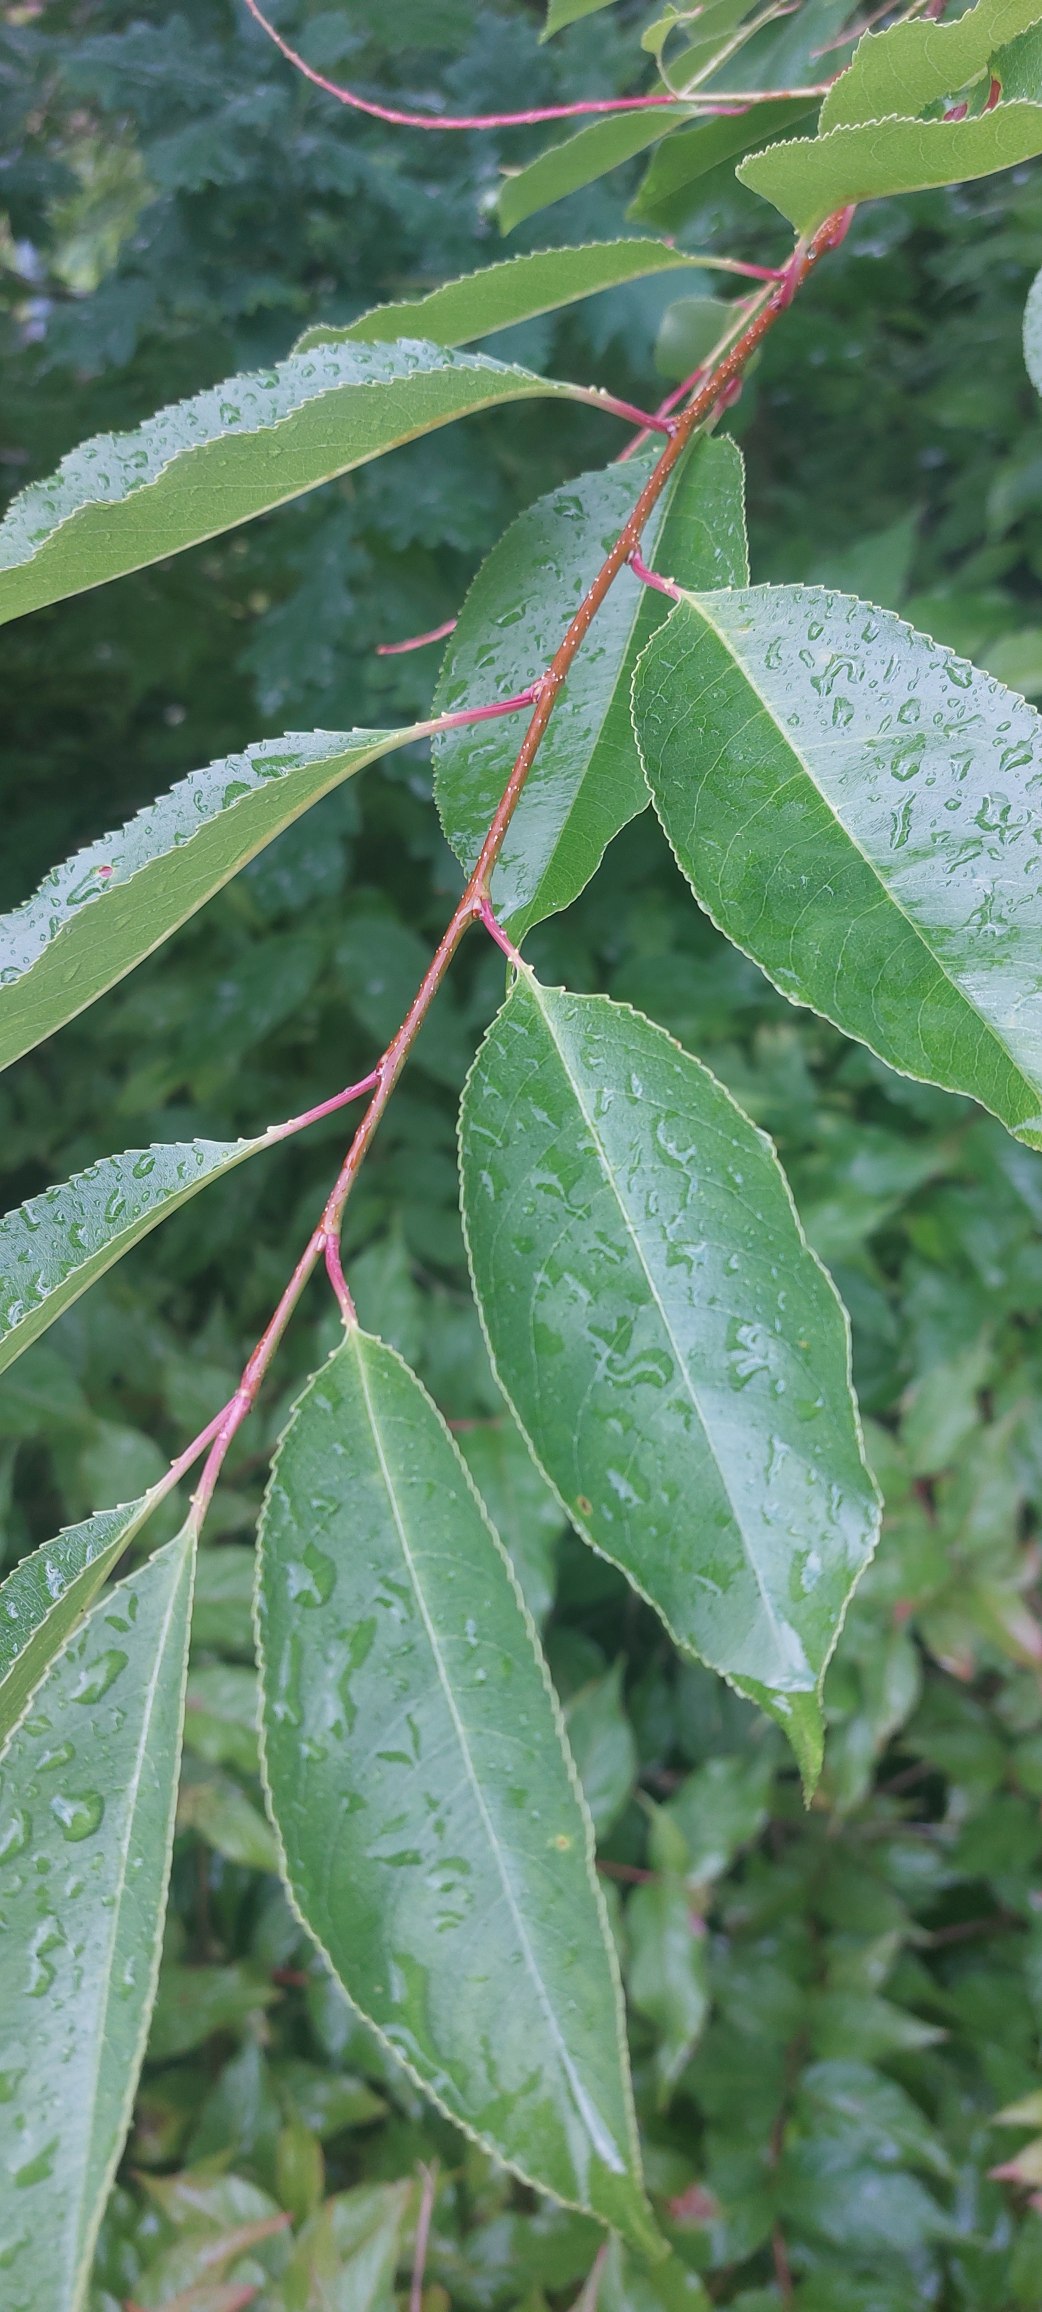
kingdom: Plantae
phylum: Tracheophyta
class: Magnoliopsida
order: Rosales
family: Rosaceae
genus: Prunus
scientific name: Prunus serotina
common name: Glansbladet hæg
